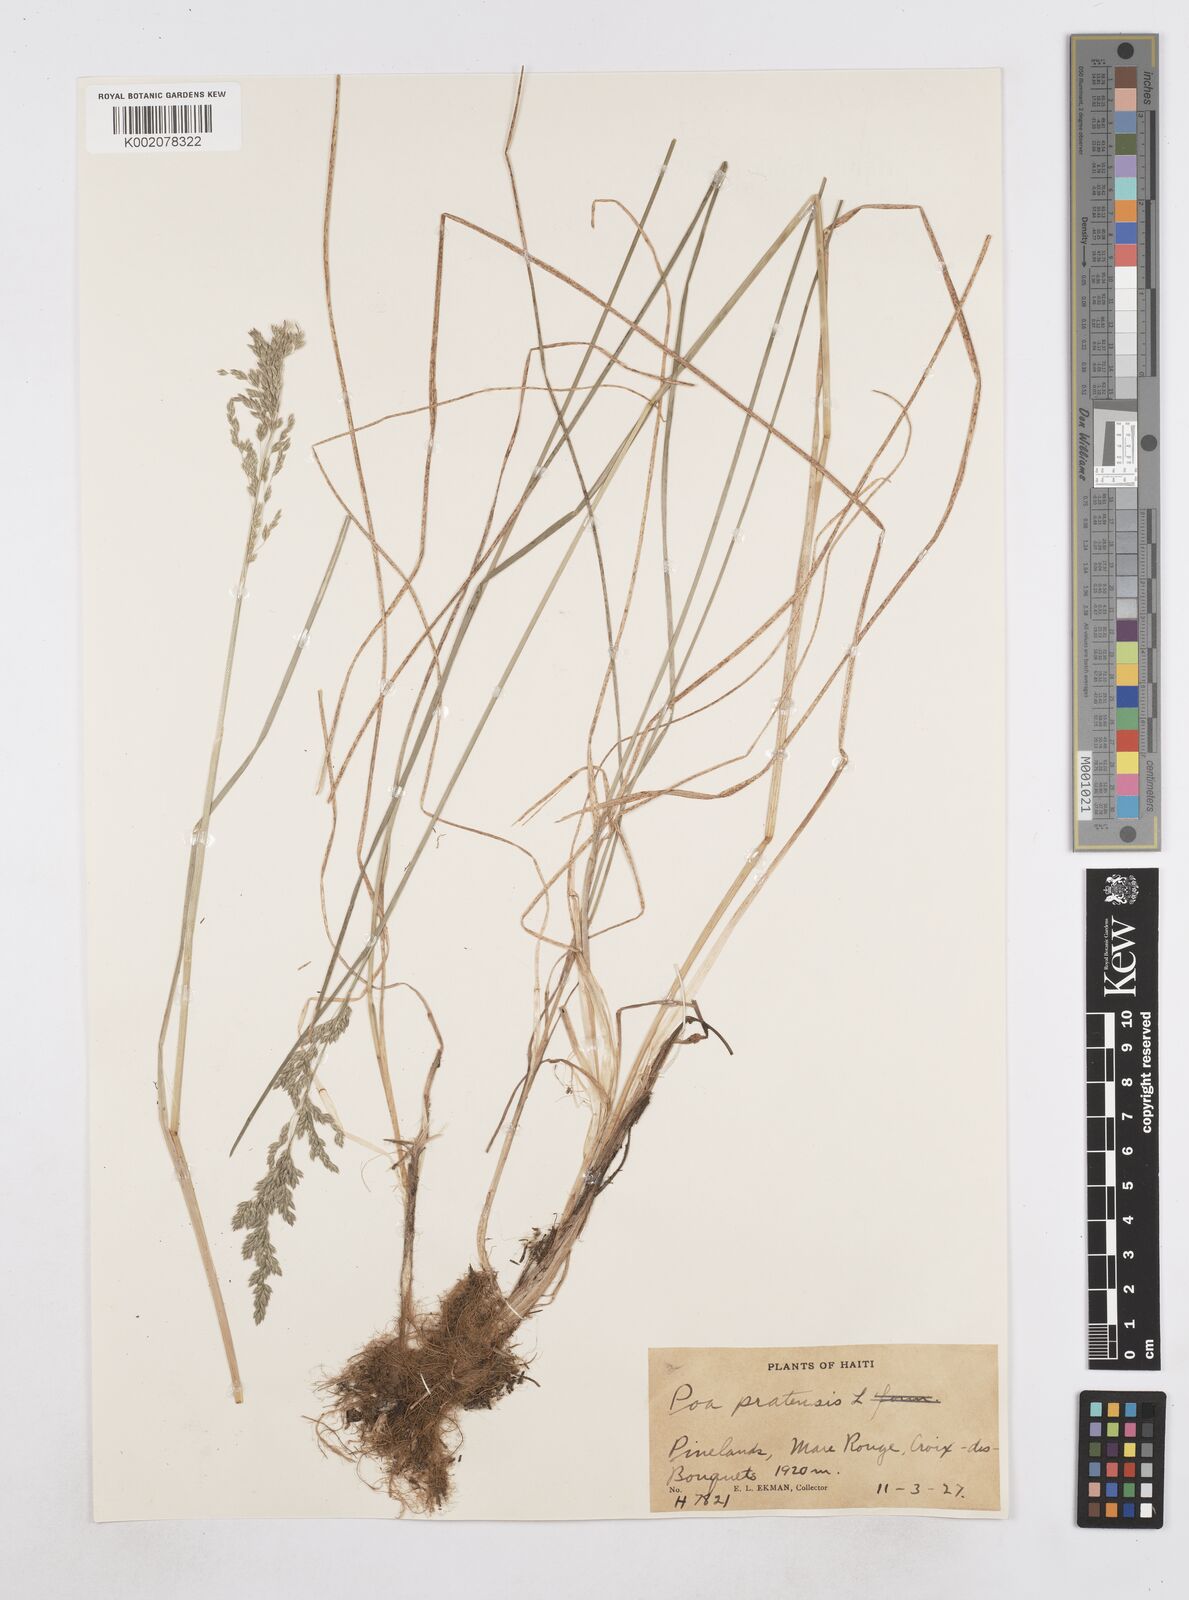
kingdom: Plantae
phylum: Tracheophyta
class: Liliopsida
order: Poales
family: Poaceae
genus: Poa
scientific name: Poa pratensis
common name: Kentucky bluegrass
